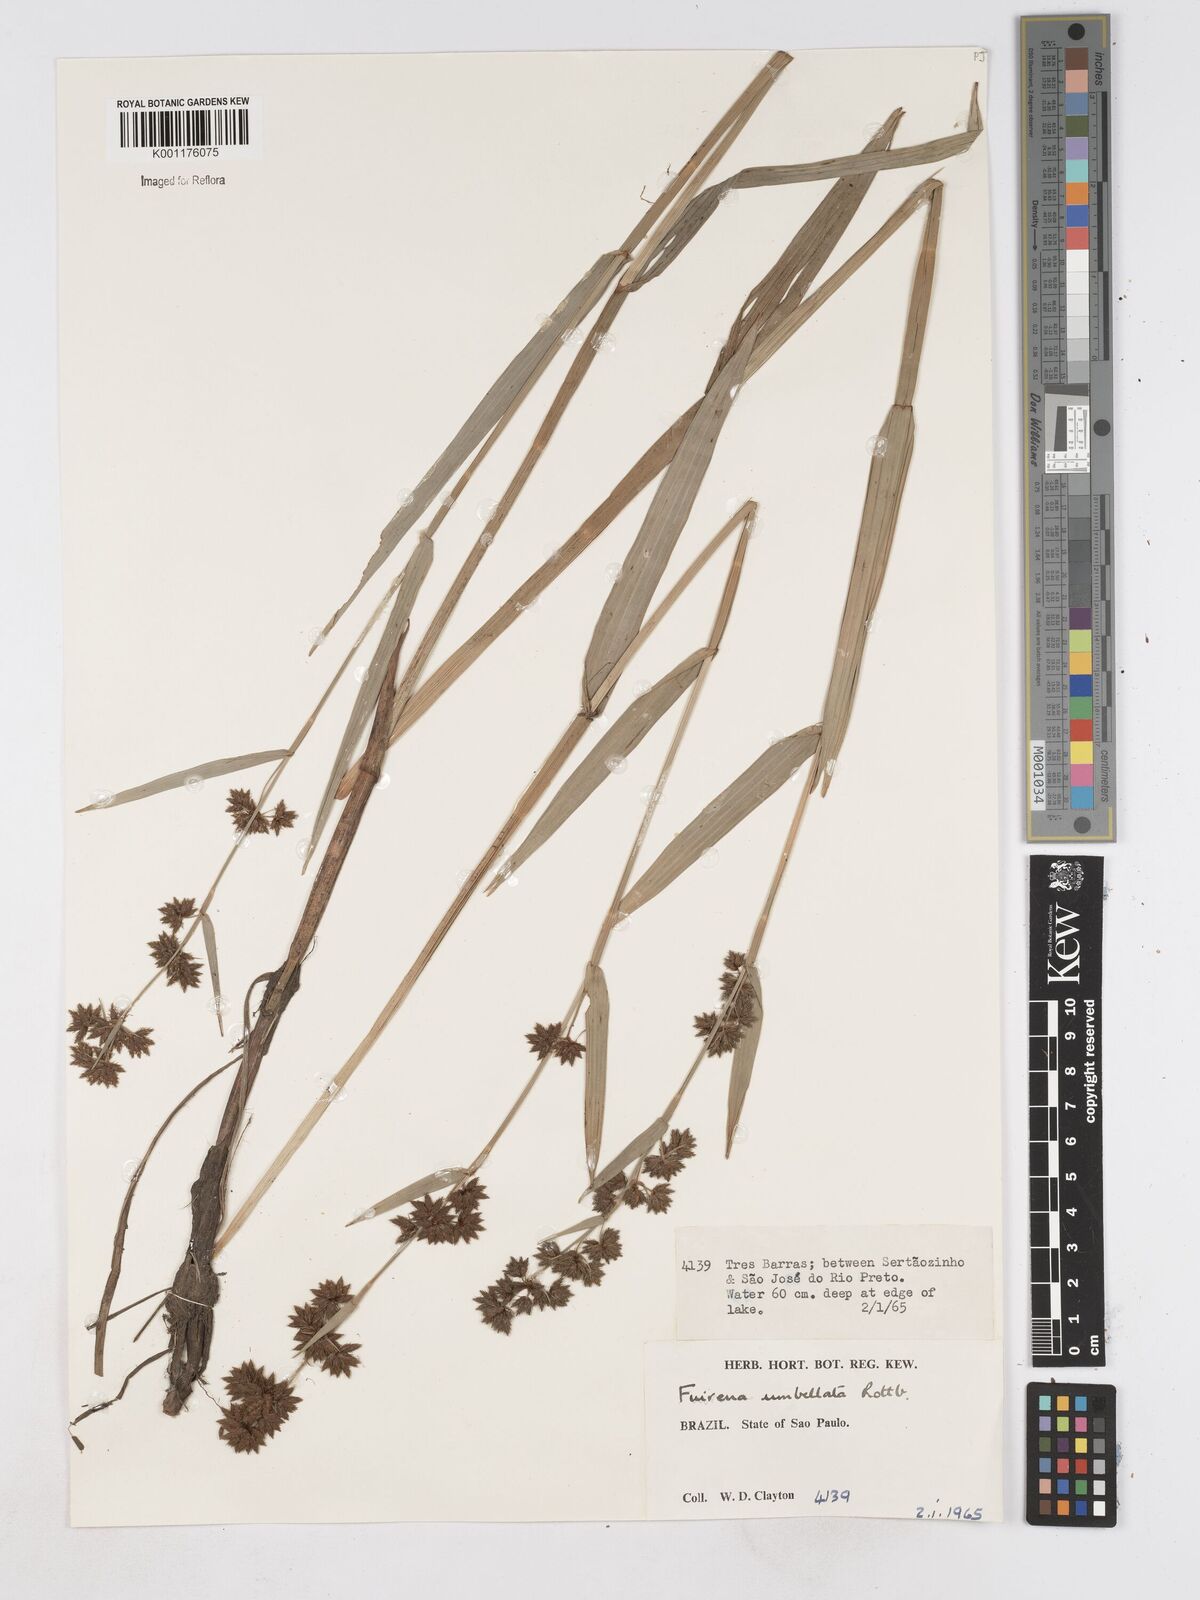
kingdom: Plantae
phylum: Tracheophyta
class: Liliopsida
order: Poales
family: Cyperaceae
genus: Fuirena
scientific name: Fuirena umbellata
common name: Yefen
